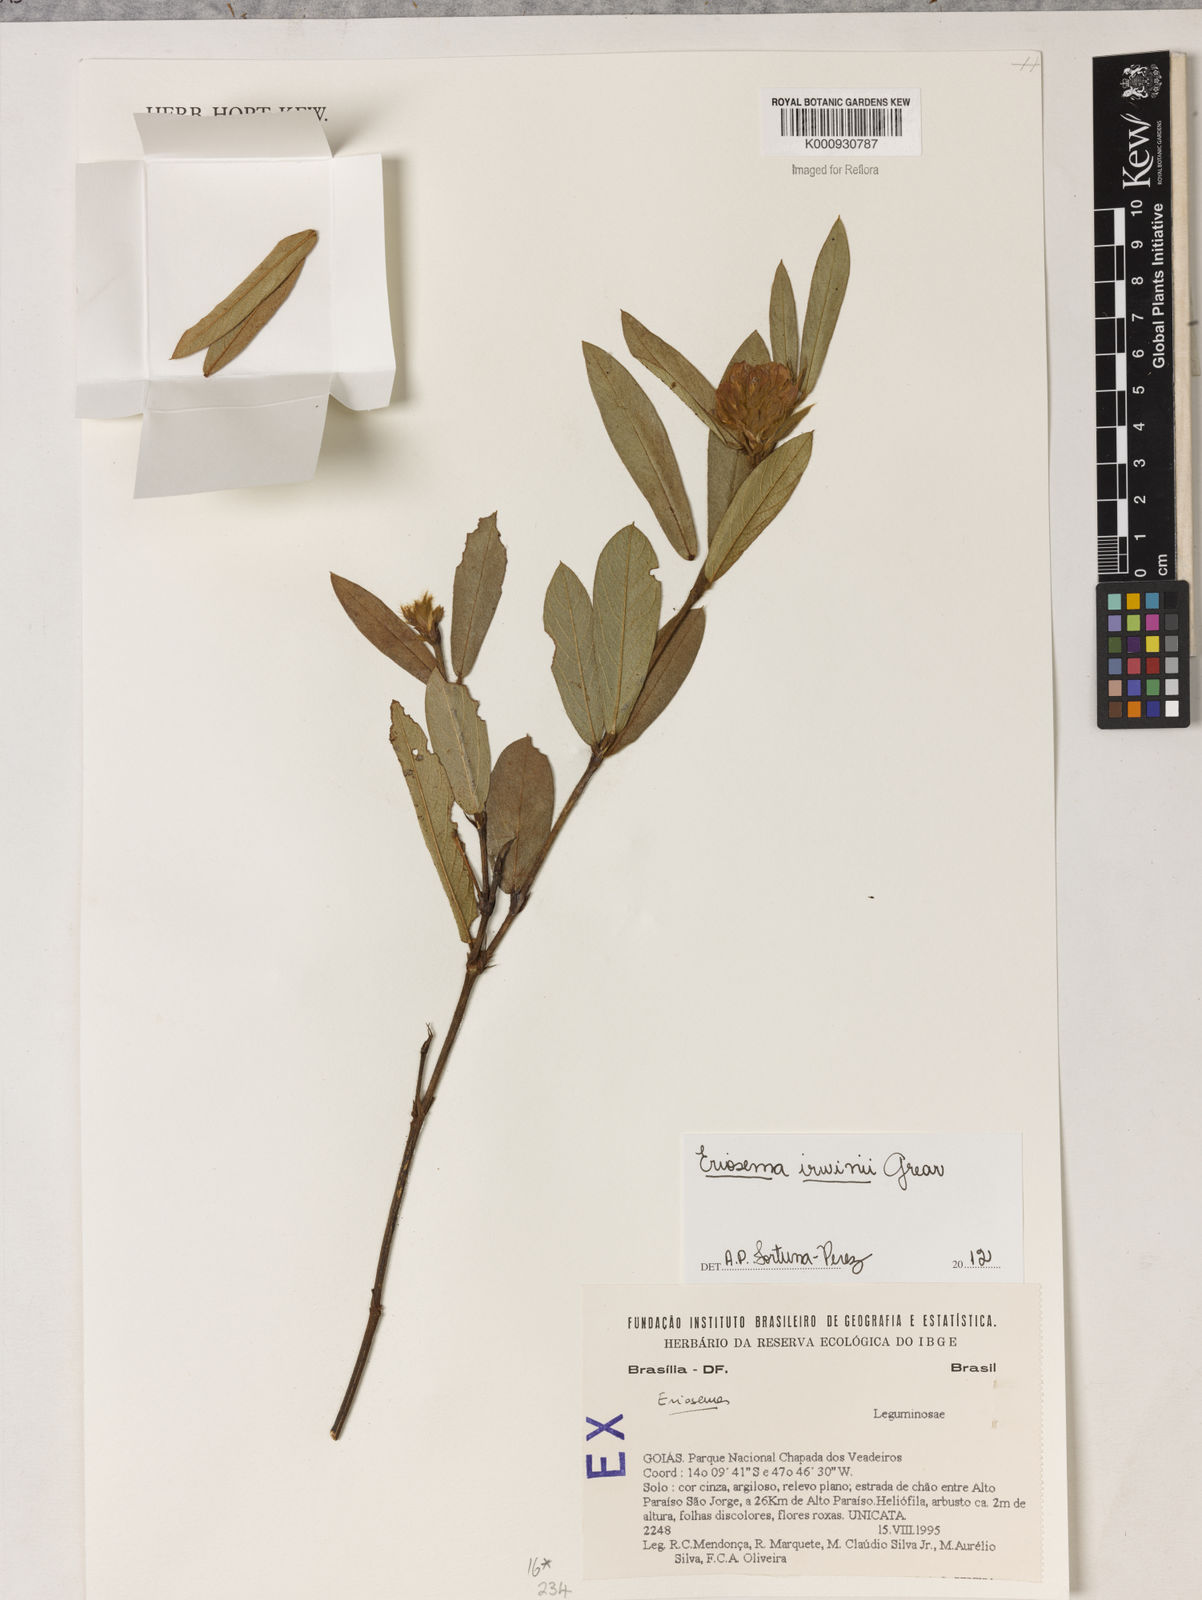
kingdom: Plantae
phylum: Tracheophyta
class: Magnoliopsida
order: Fabales
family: Fabaceae
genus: Eriosema
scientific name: Eriosema irwinii
